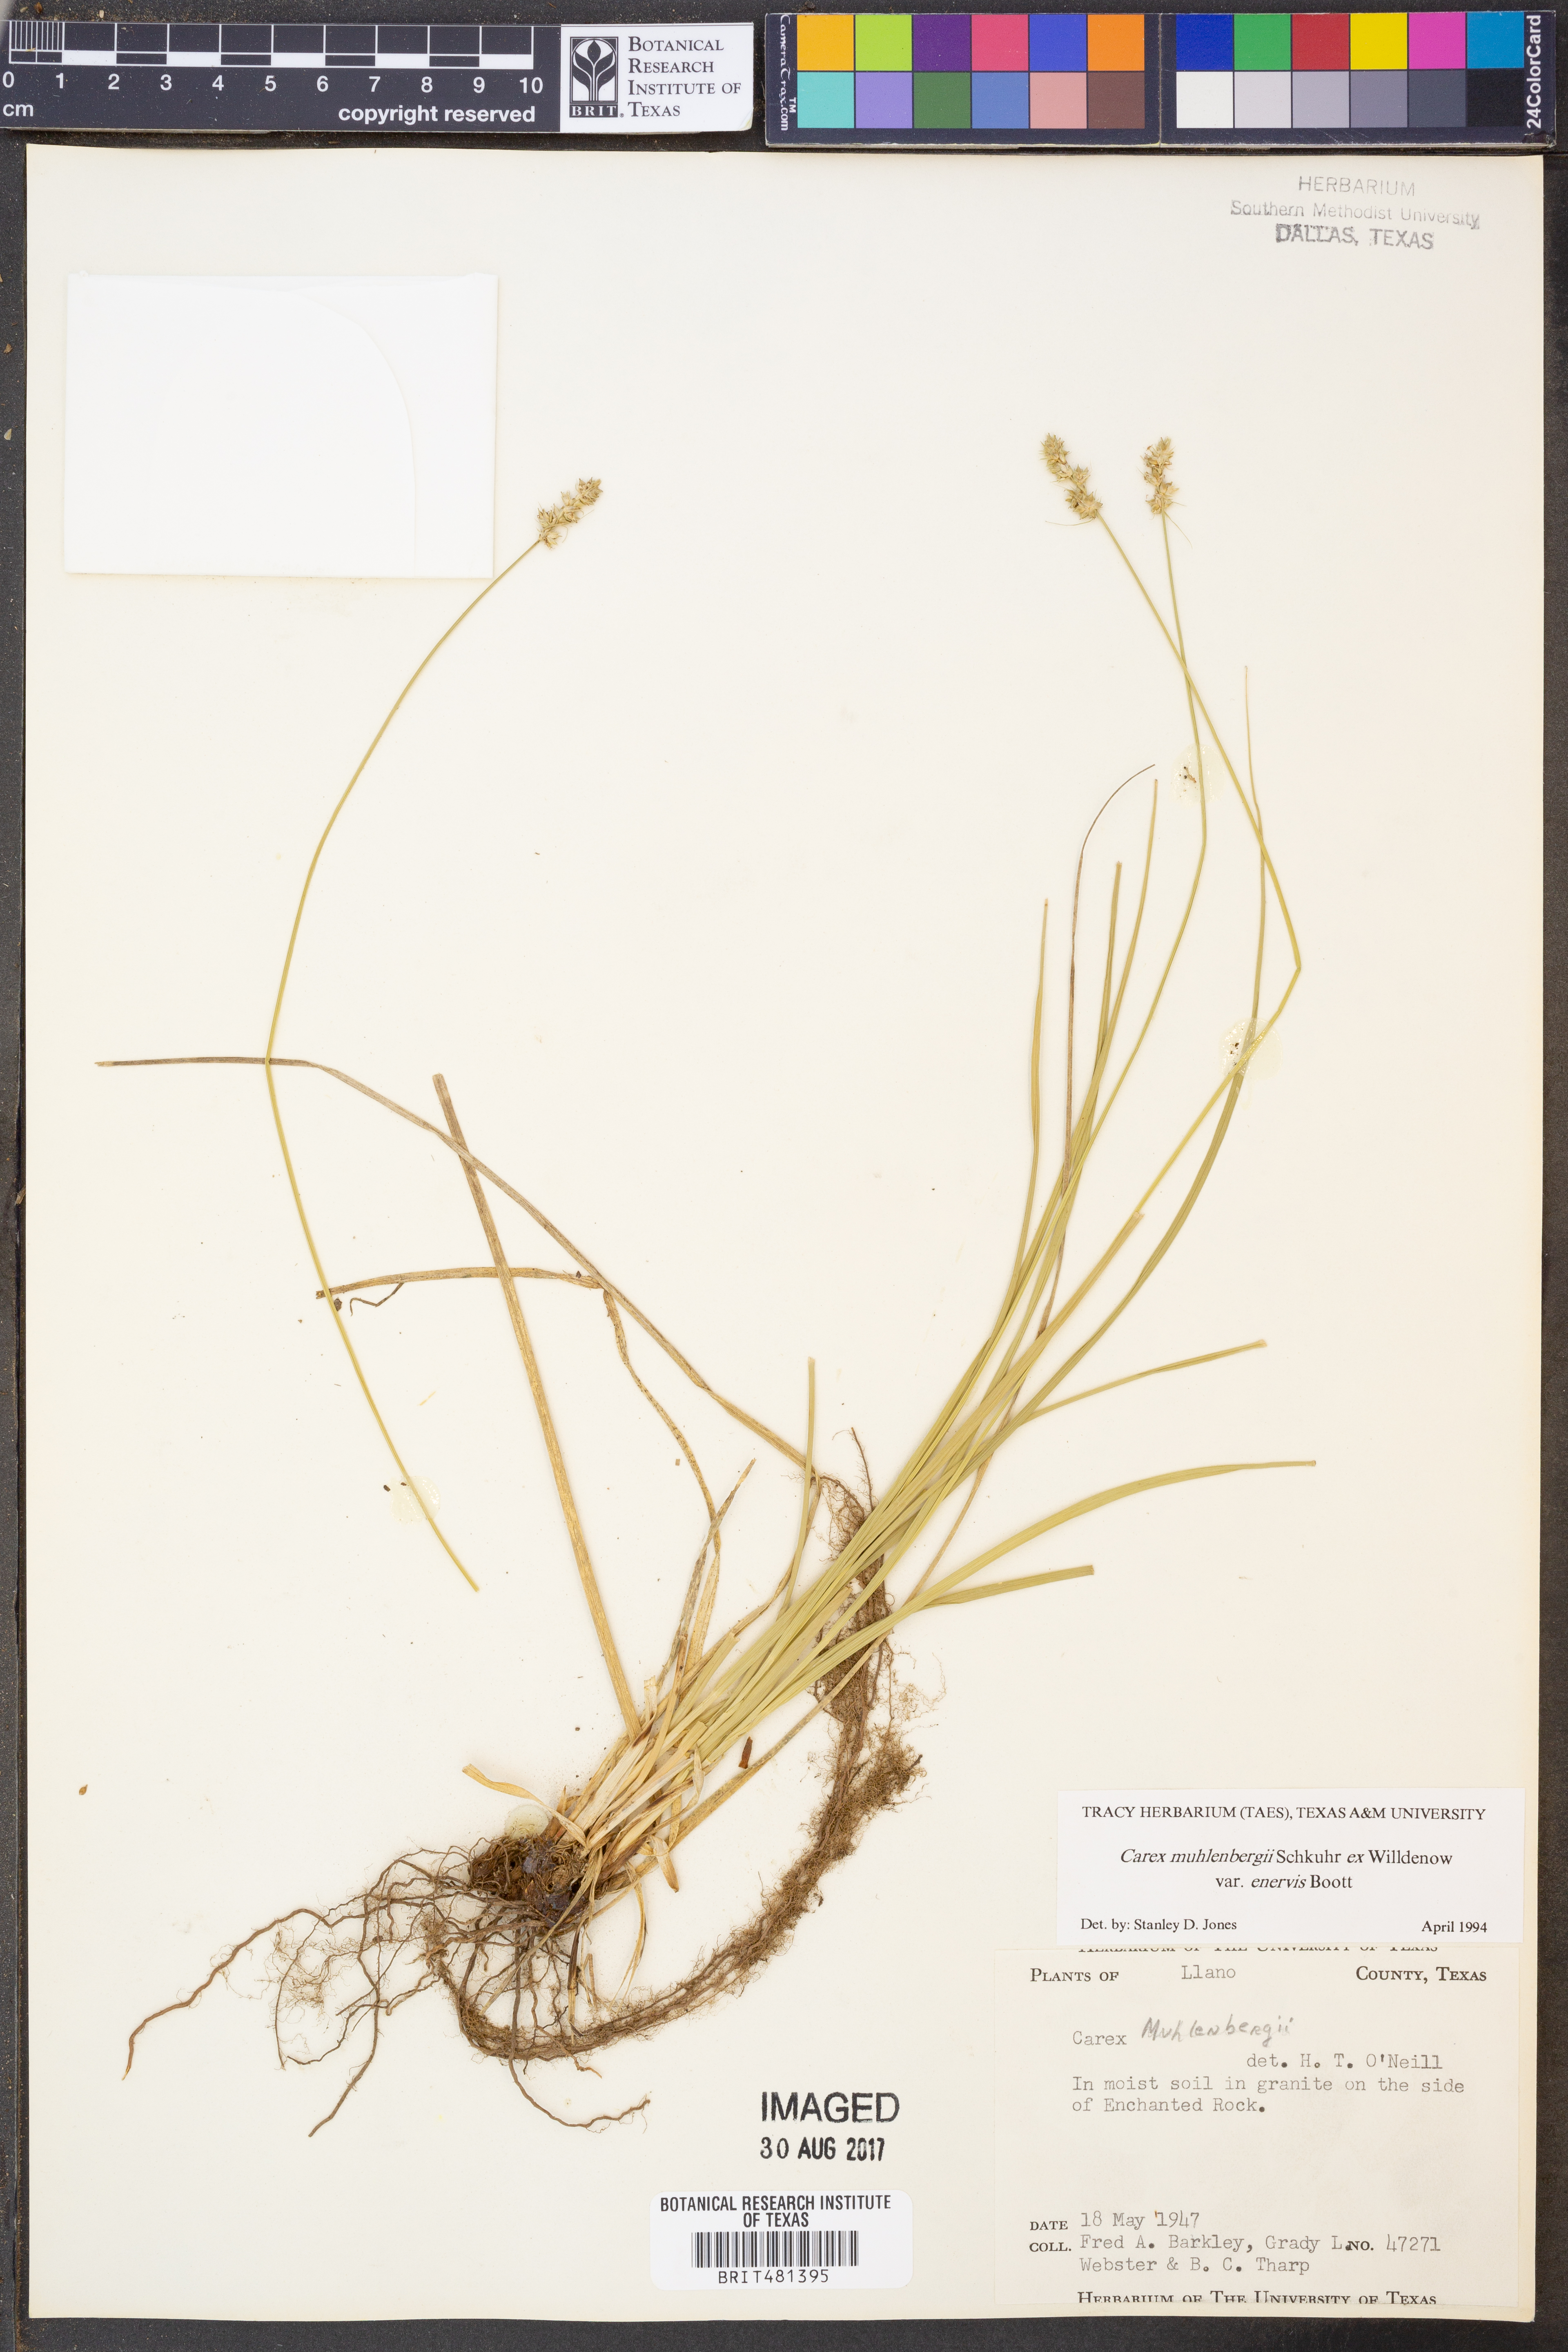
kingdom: Plantae
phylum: Tracheophyta
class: Liliopsida
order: Poales
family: Cyperaceae
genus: Carex
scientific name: Carex vulpinoidea
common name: American fox-sedge
